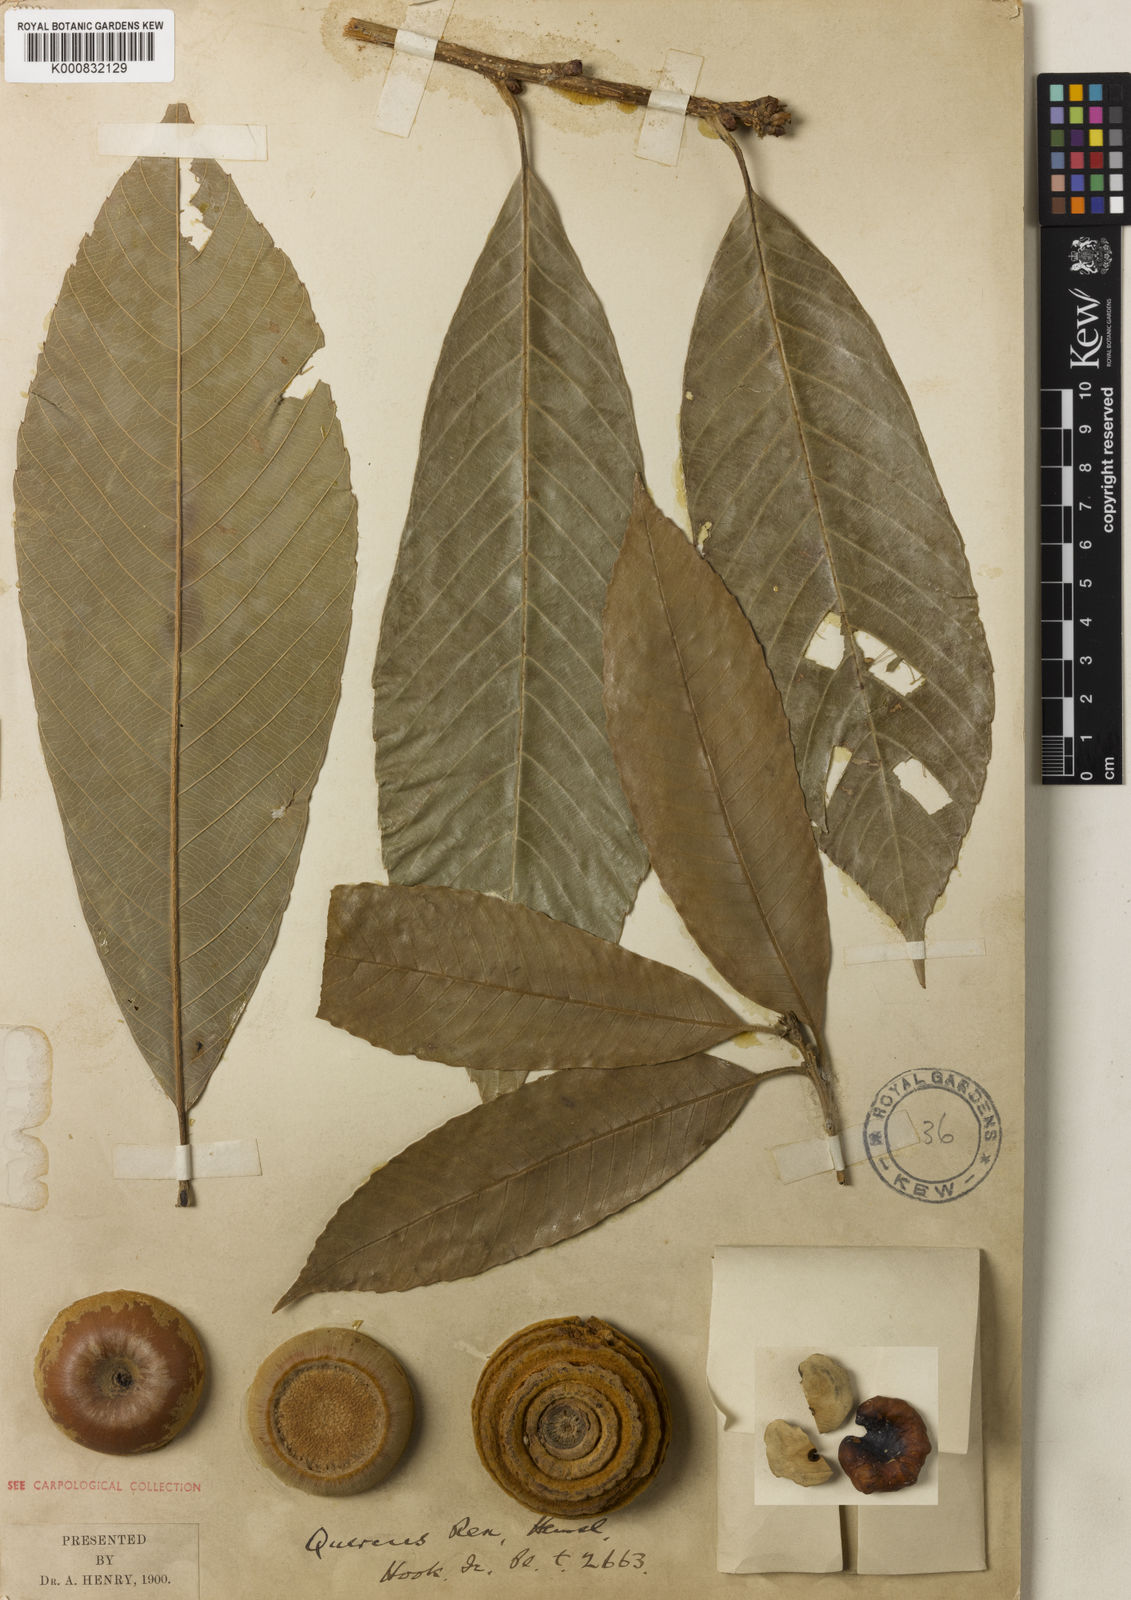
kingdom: Plantae
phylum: Tracheophyta
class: Magnoliopsida
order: Fagales
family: Fagaceae
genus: Quercus
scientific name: Quercus rex
